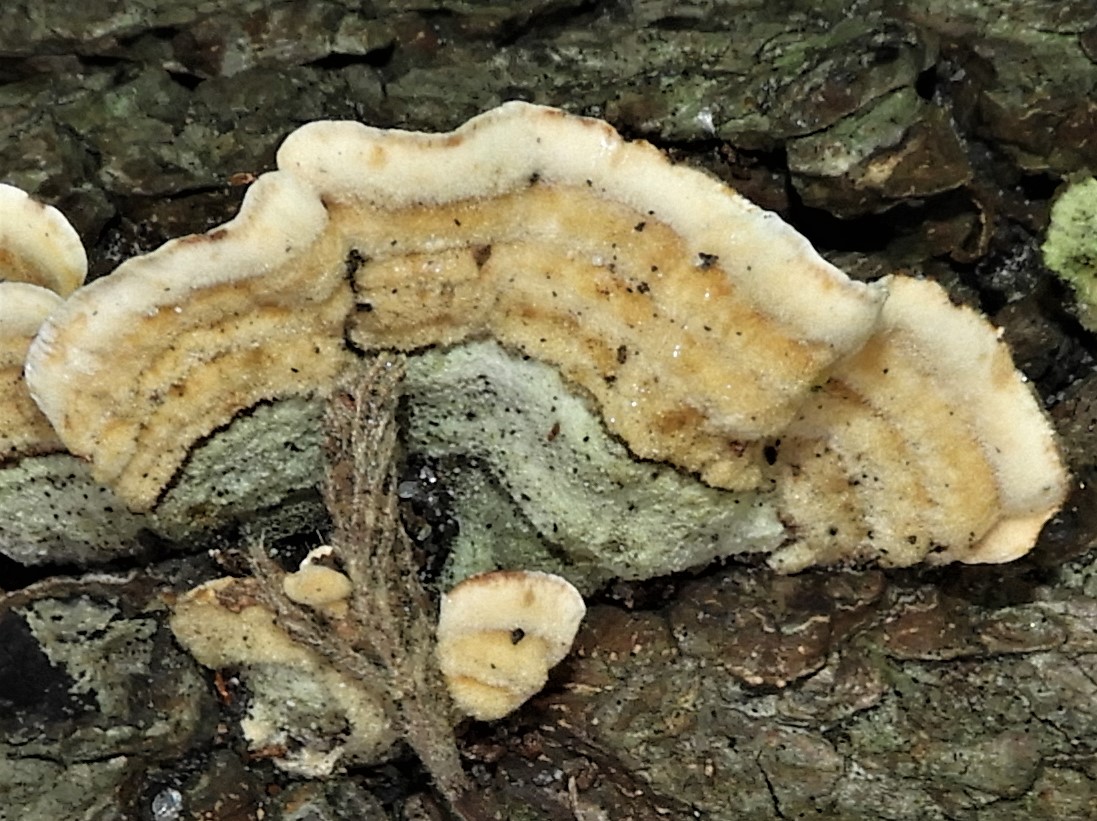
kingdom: Fungi
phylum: Basidiomycota
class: Agaricomycetes
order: Russulales
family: Stereaceae
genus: Stereum
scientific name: Stereum hirsutum
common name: håret lædersvamp
